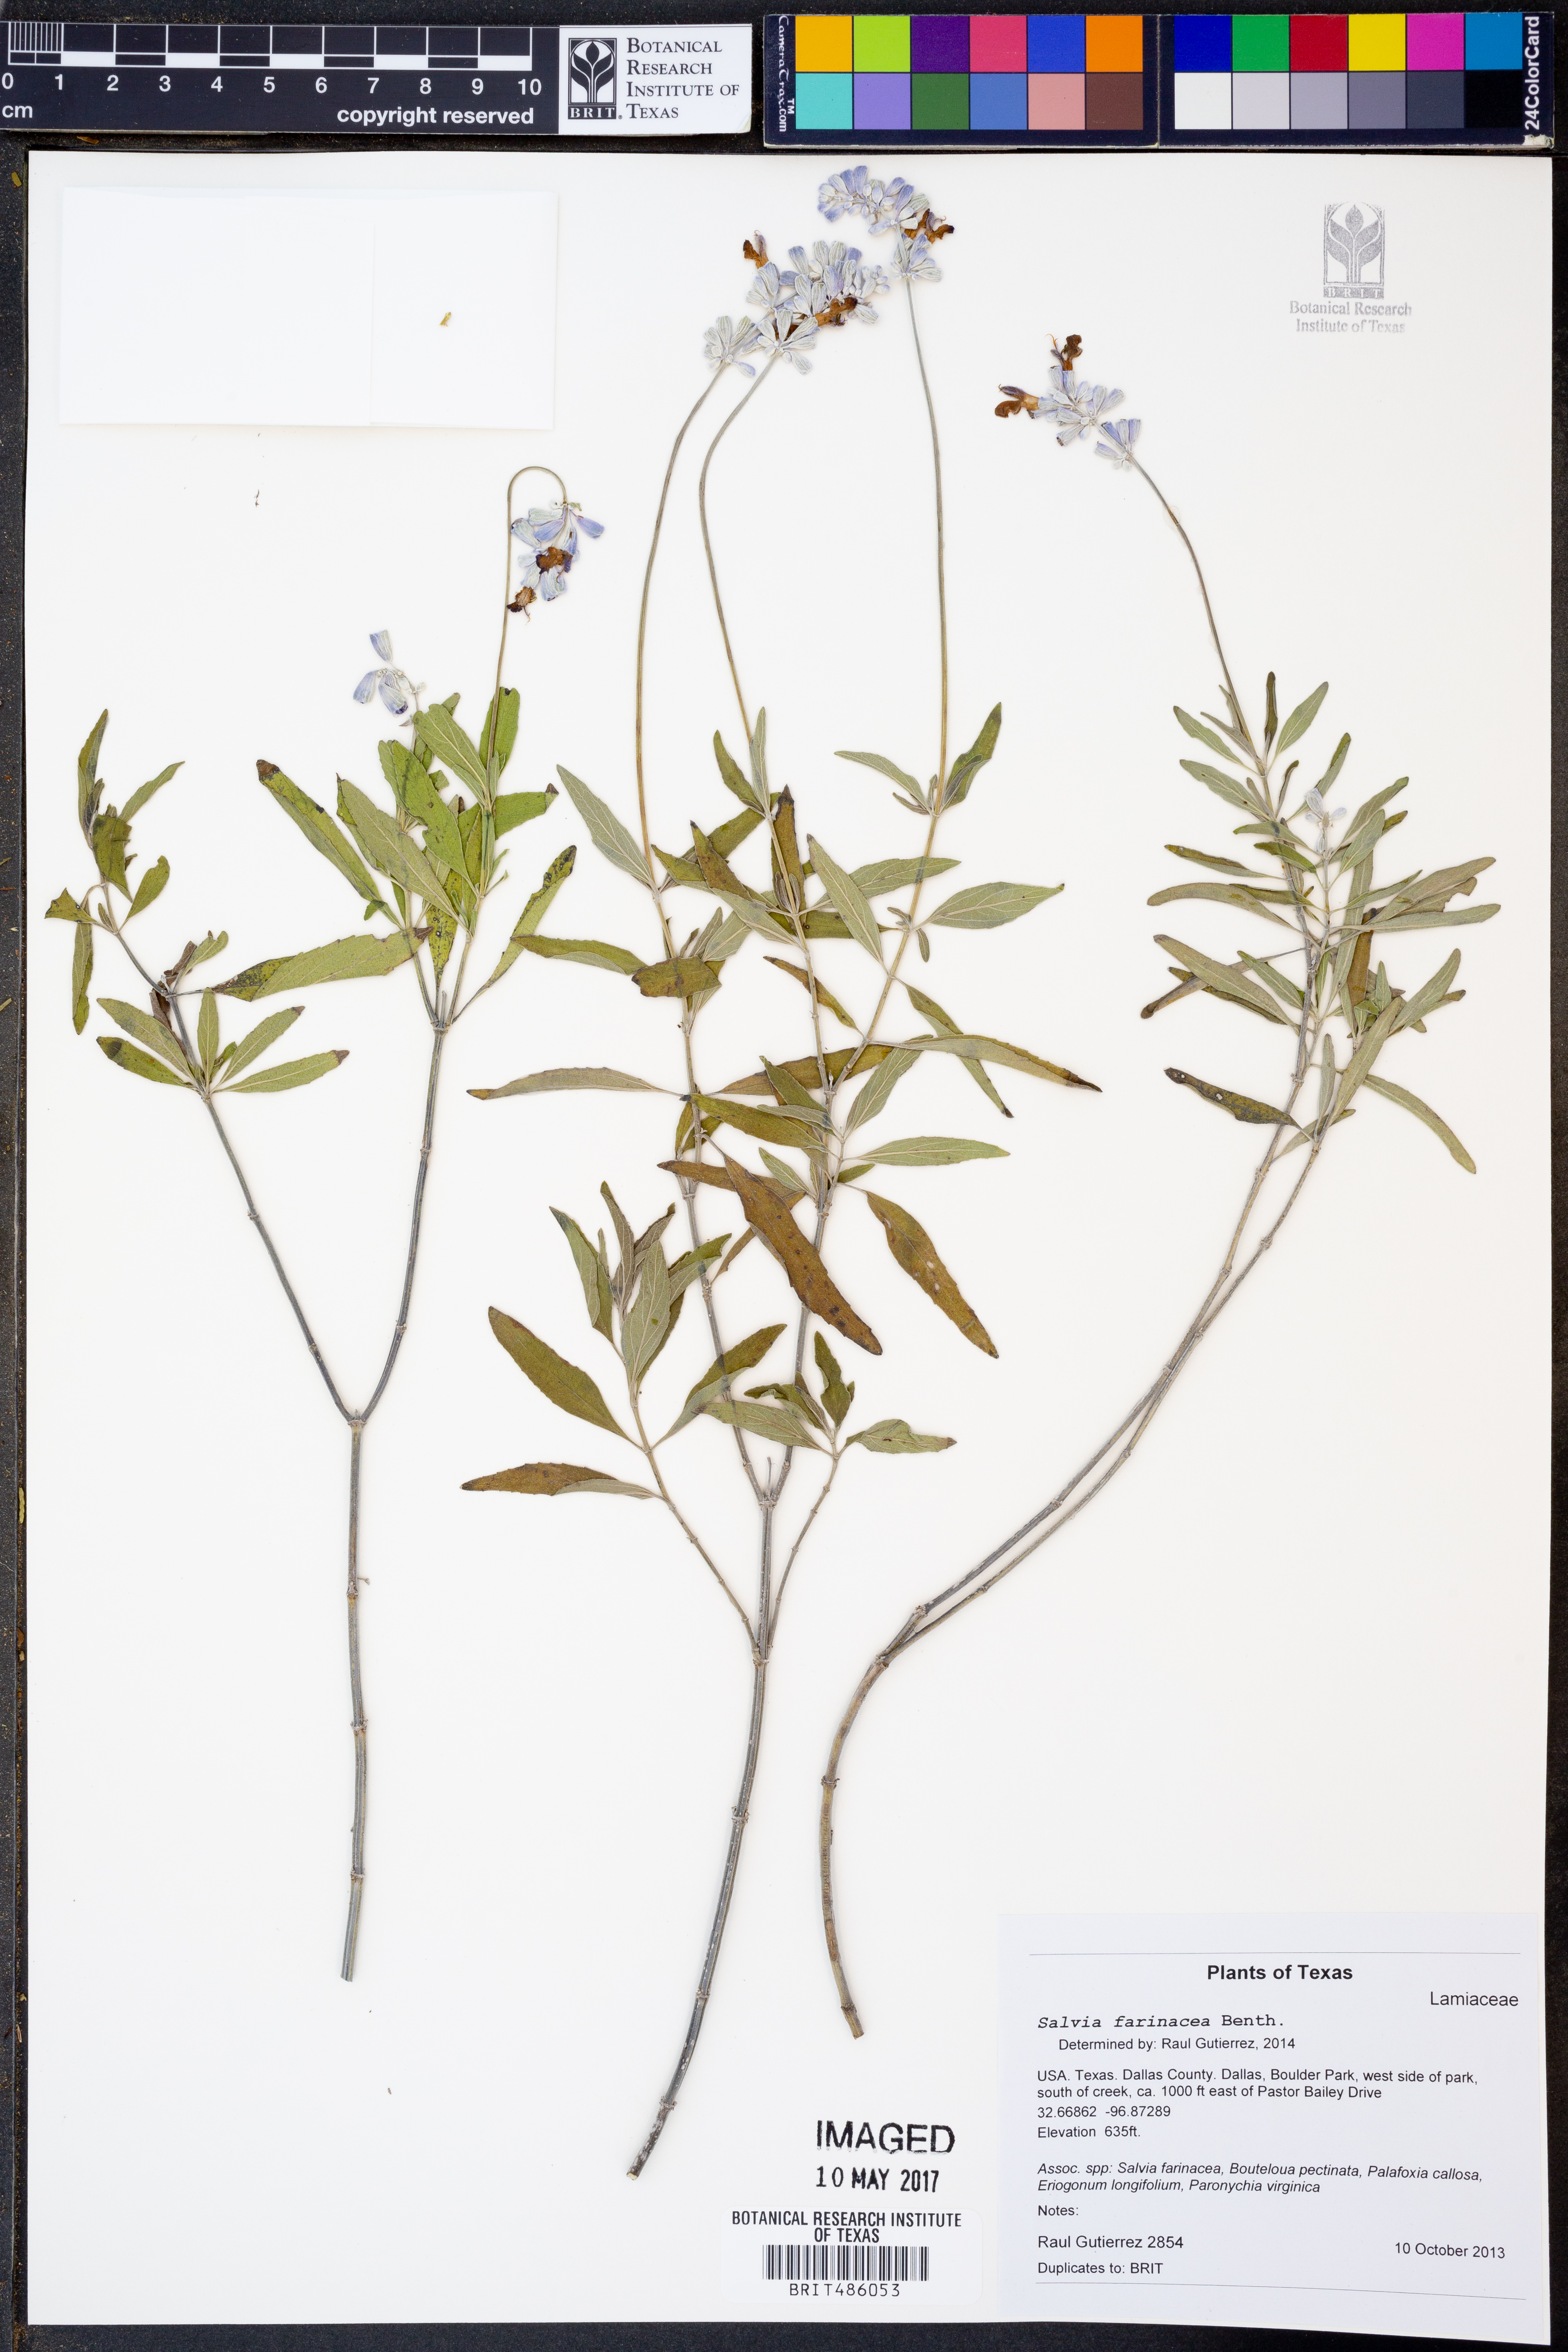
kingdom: Plantae
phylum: Tracheophyta
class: Magnoliopsida
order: Lamiales
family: Lamiaceae
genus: Salvia
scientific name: Salvia farinacea
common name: Mealy sage
